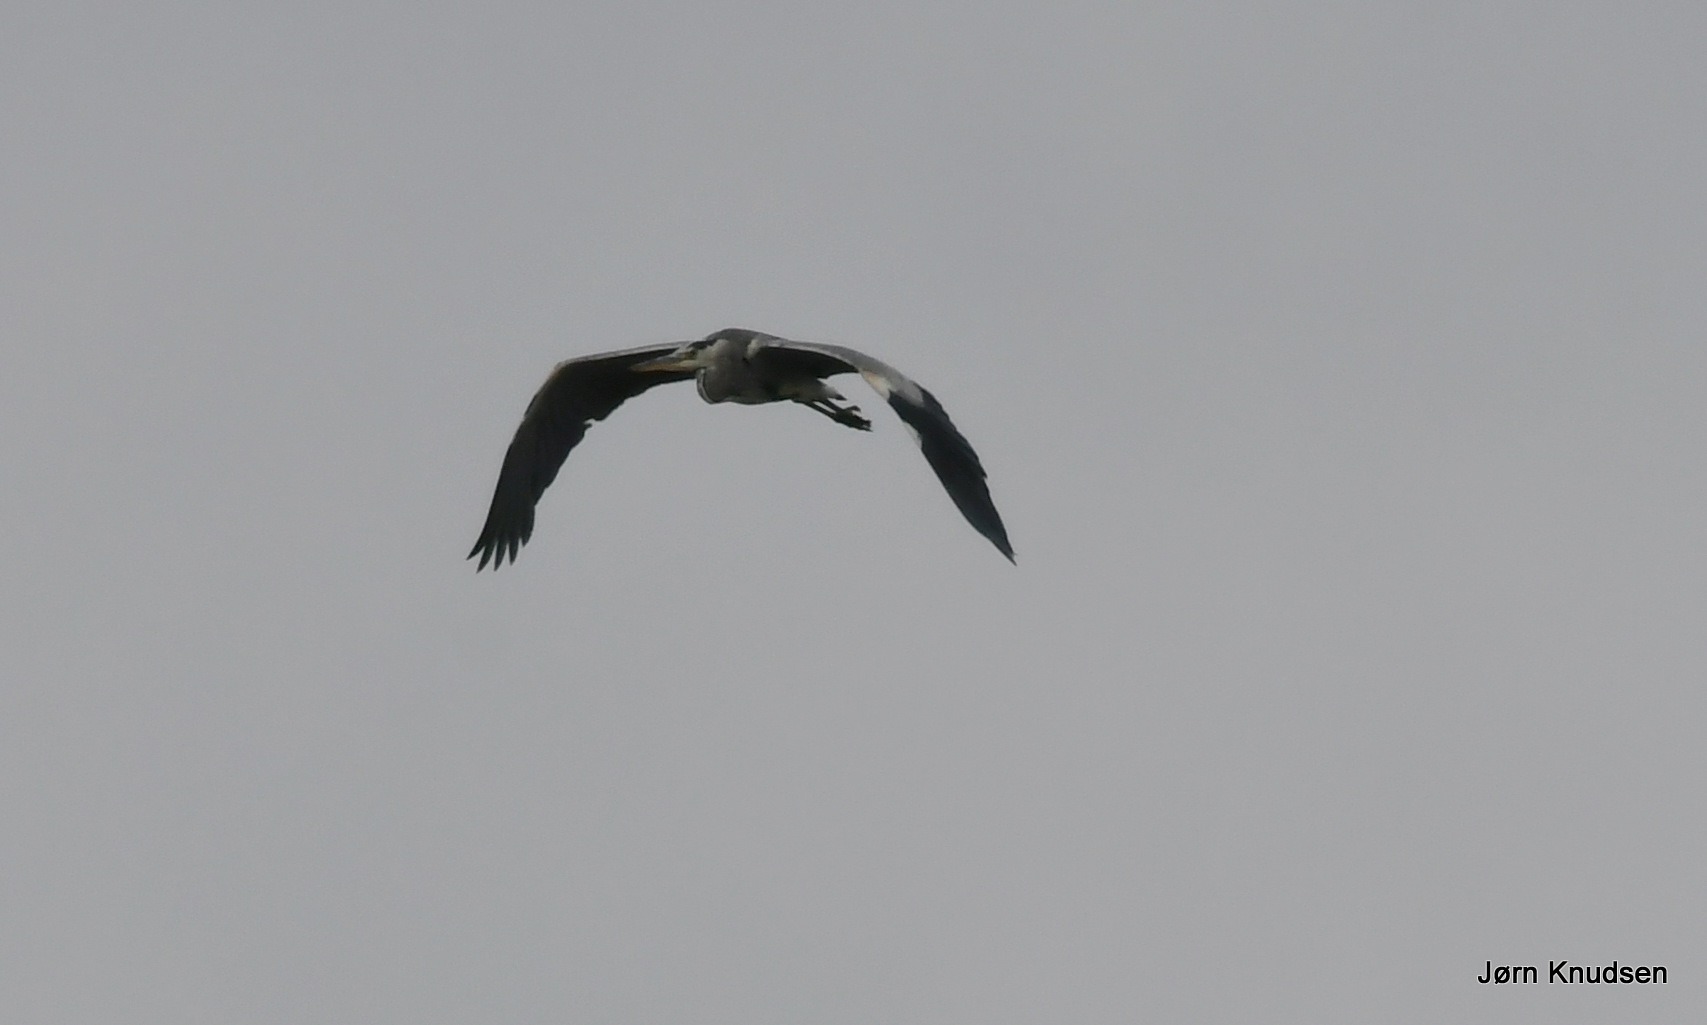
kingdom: Animalia
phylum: Chordata
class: Aves
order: Pelecaniformes
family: Ardeidae
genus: Ardea
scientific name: Ardea cinerea
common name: Fiskehejre
